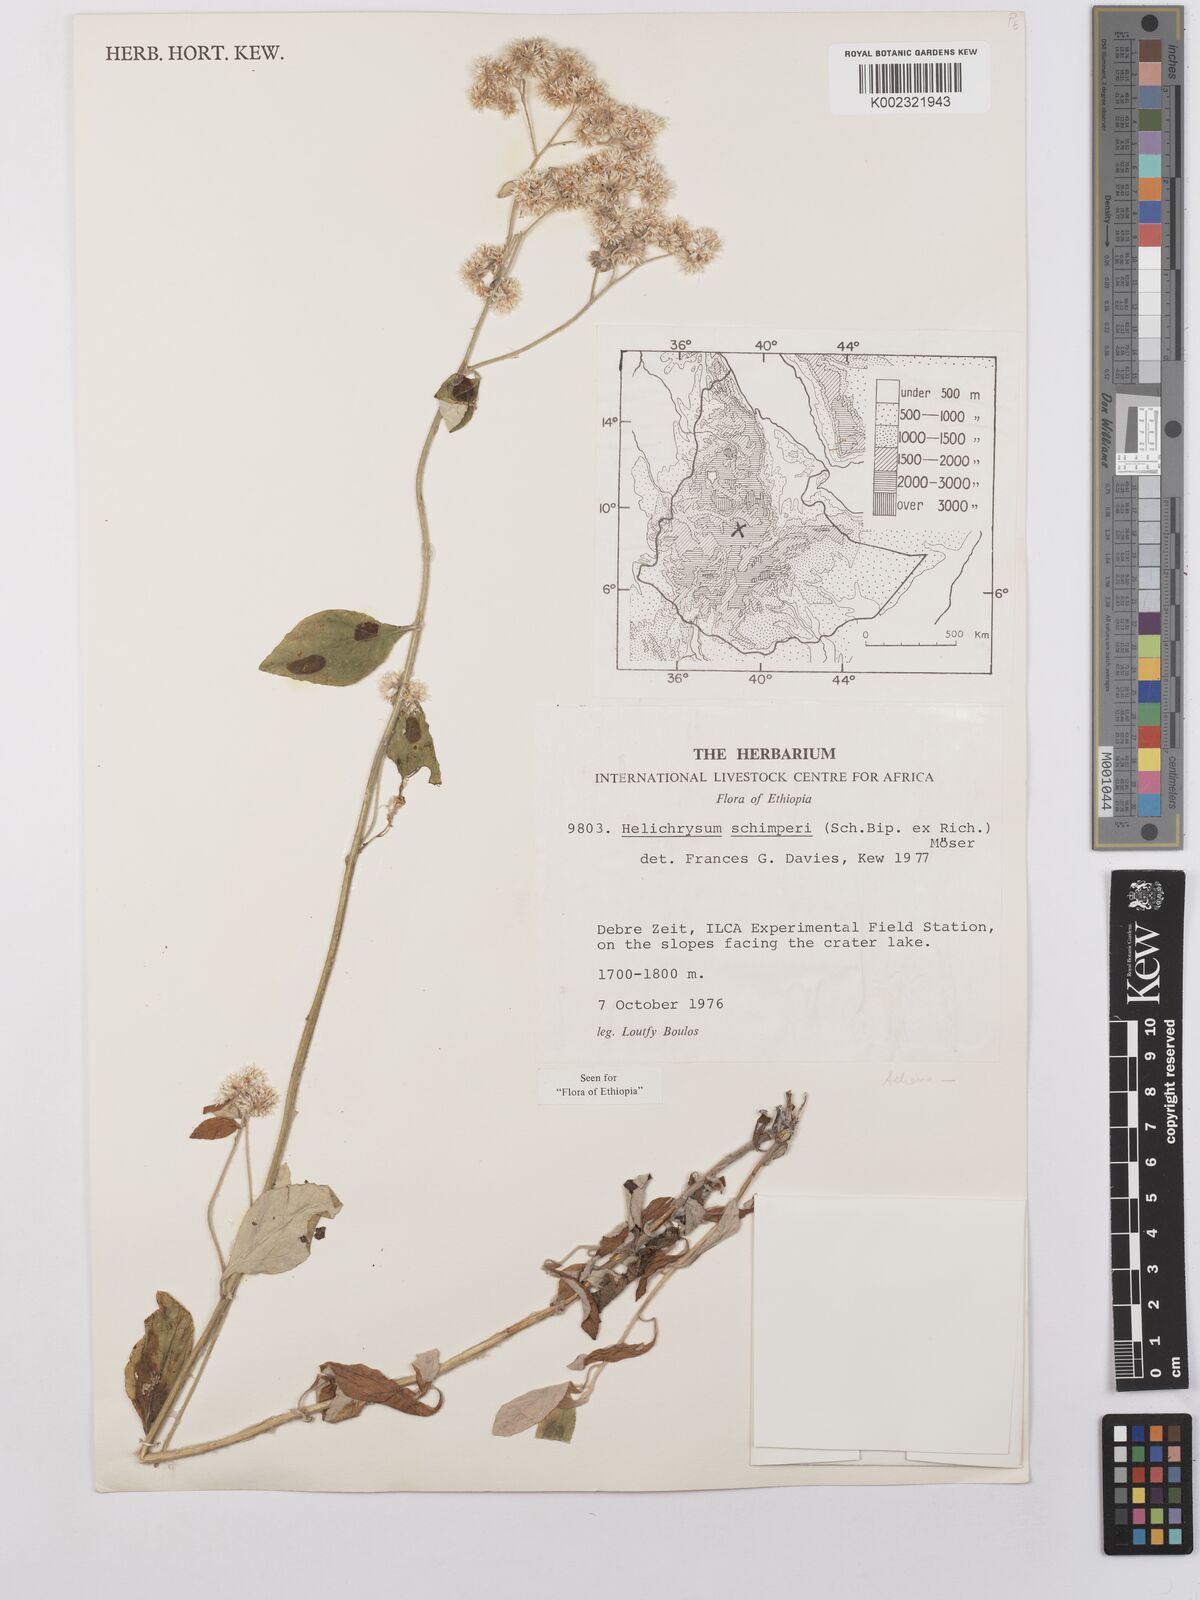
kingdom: Plantae
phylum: Tracheophyta
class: Magnoliopsida
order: Asterales
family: Asteraceae
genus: Helichrysum
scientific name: Helichrysum schimperi
